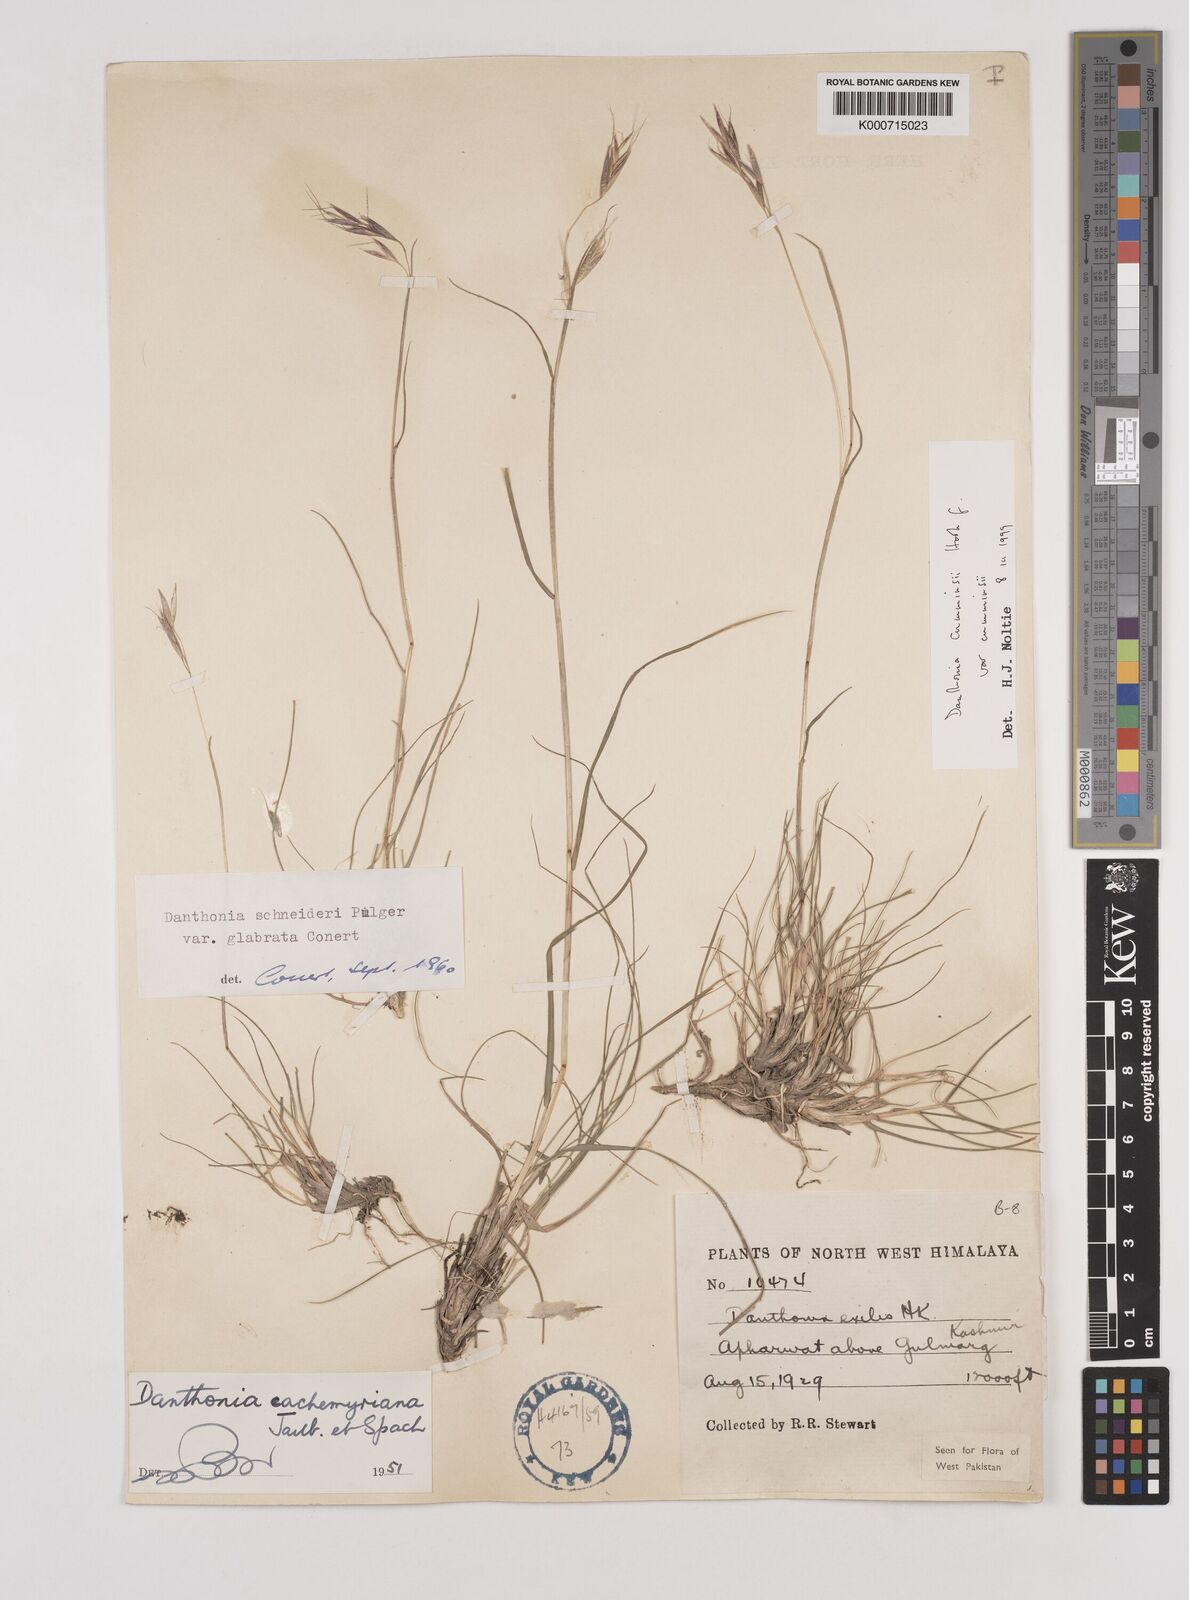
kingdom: Plantae
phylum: Tracheophyta
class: Liliopsida
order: Poales
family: Poaceae
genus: Rytidosperma
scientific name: Rytidosperma
